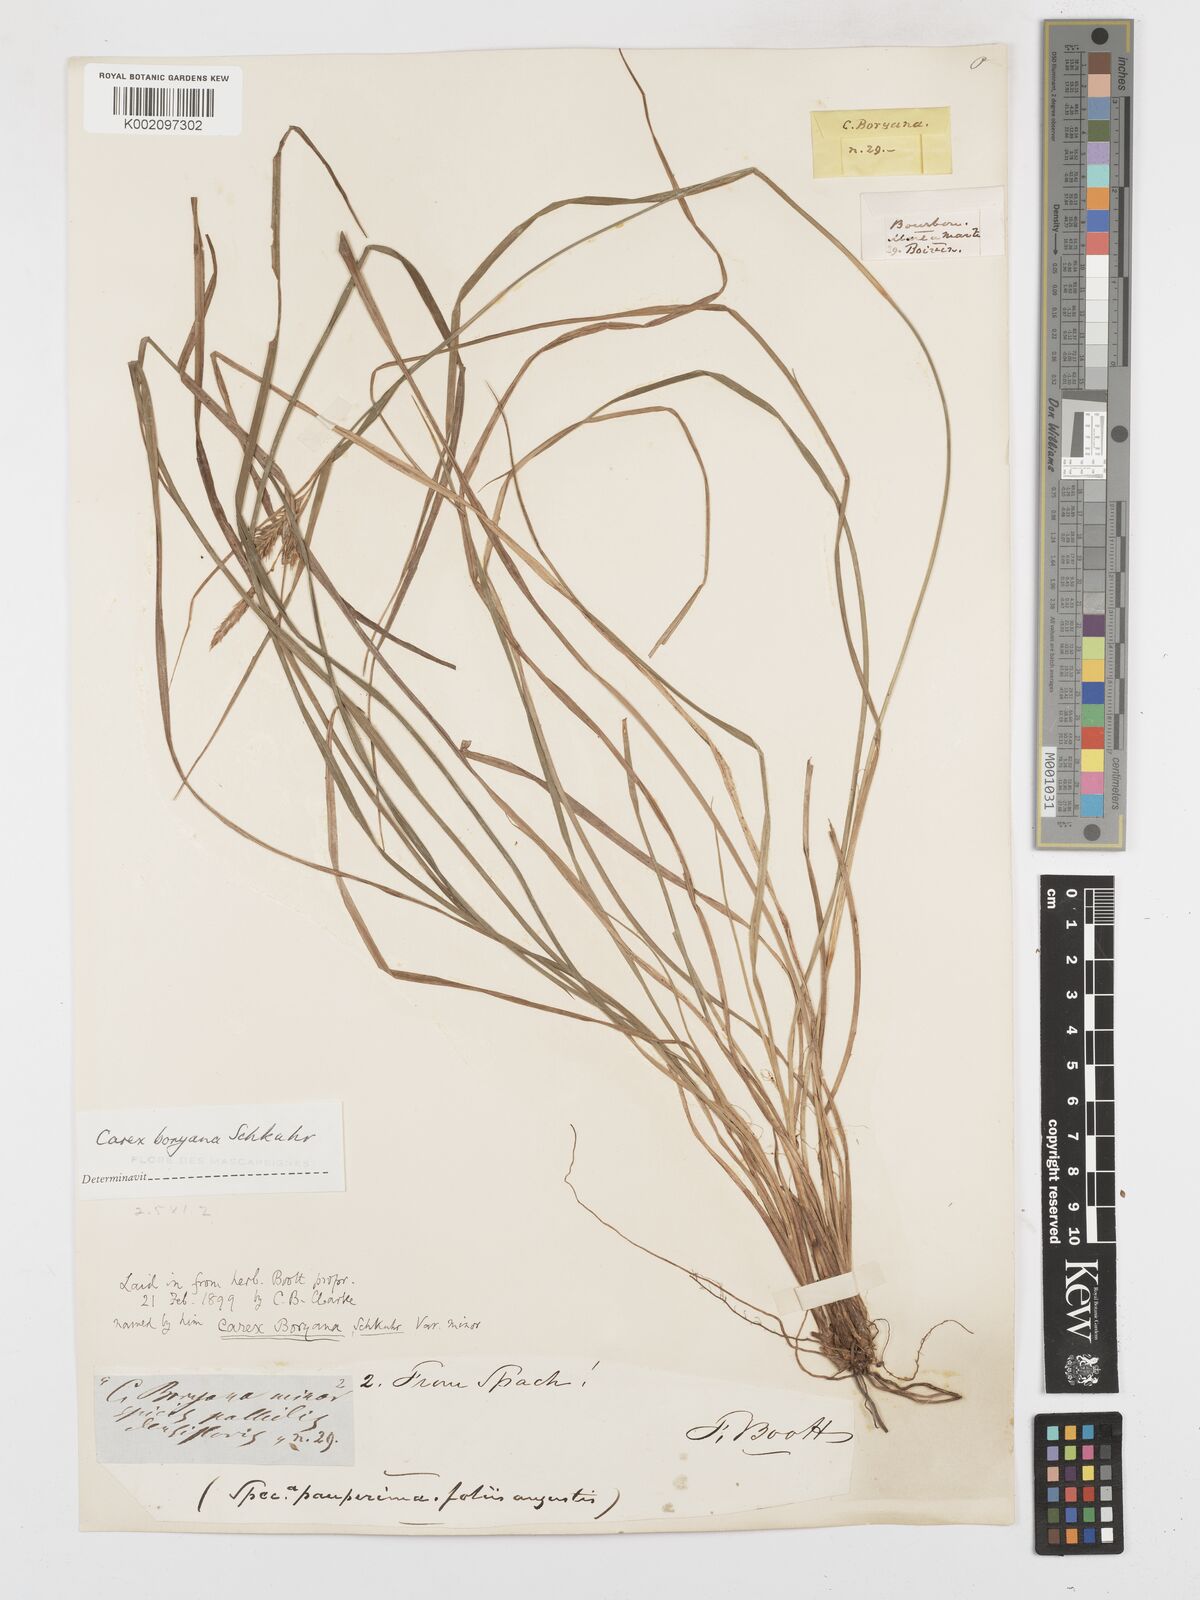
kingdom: Plantae
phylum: Tracheophyta
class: Liliopsida
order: Poales
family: Cyperaceae
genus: Carex
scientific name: Carex boryana
